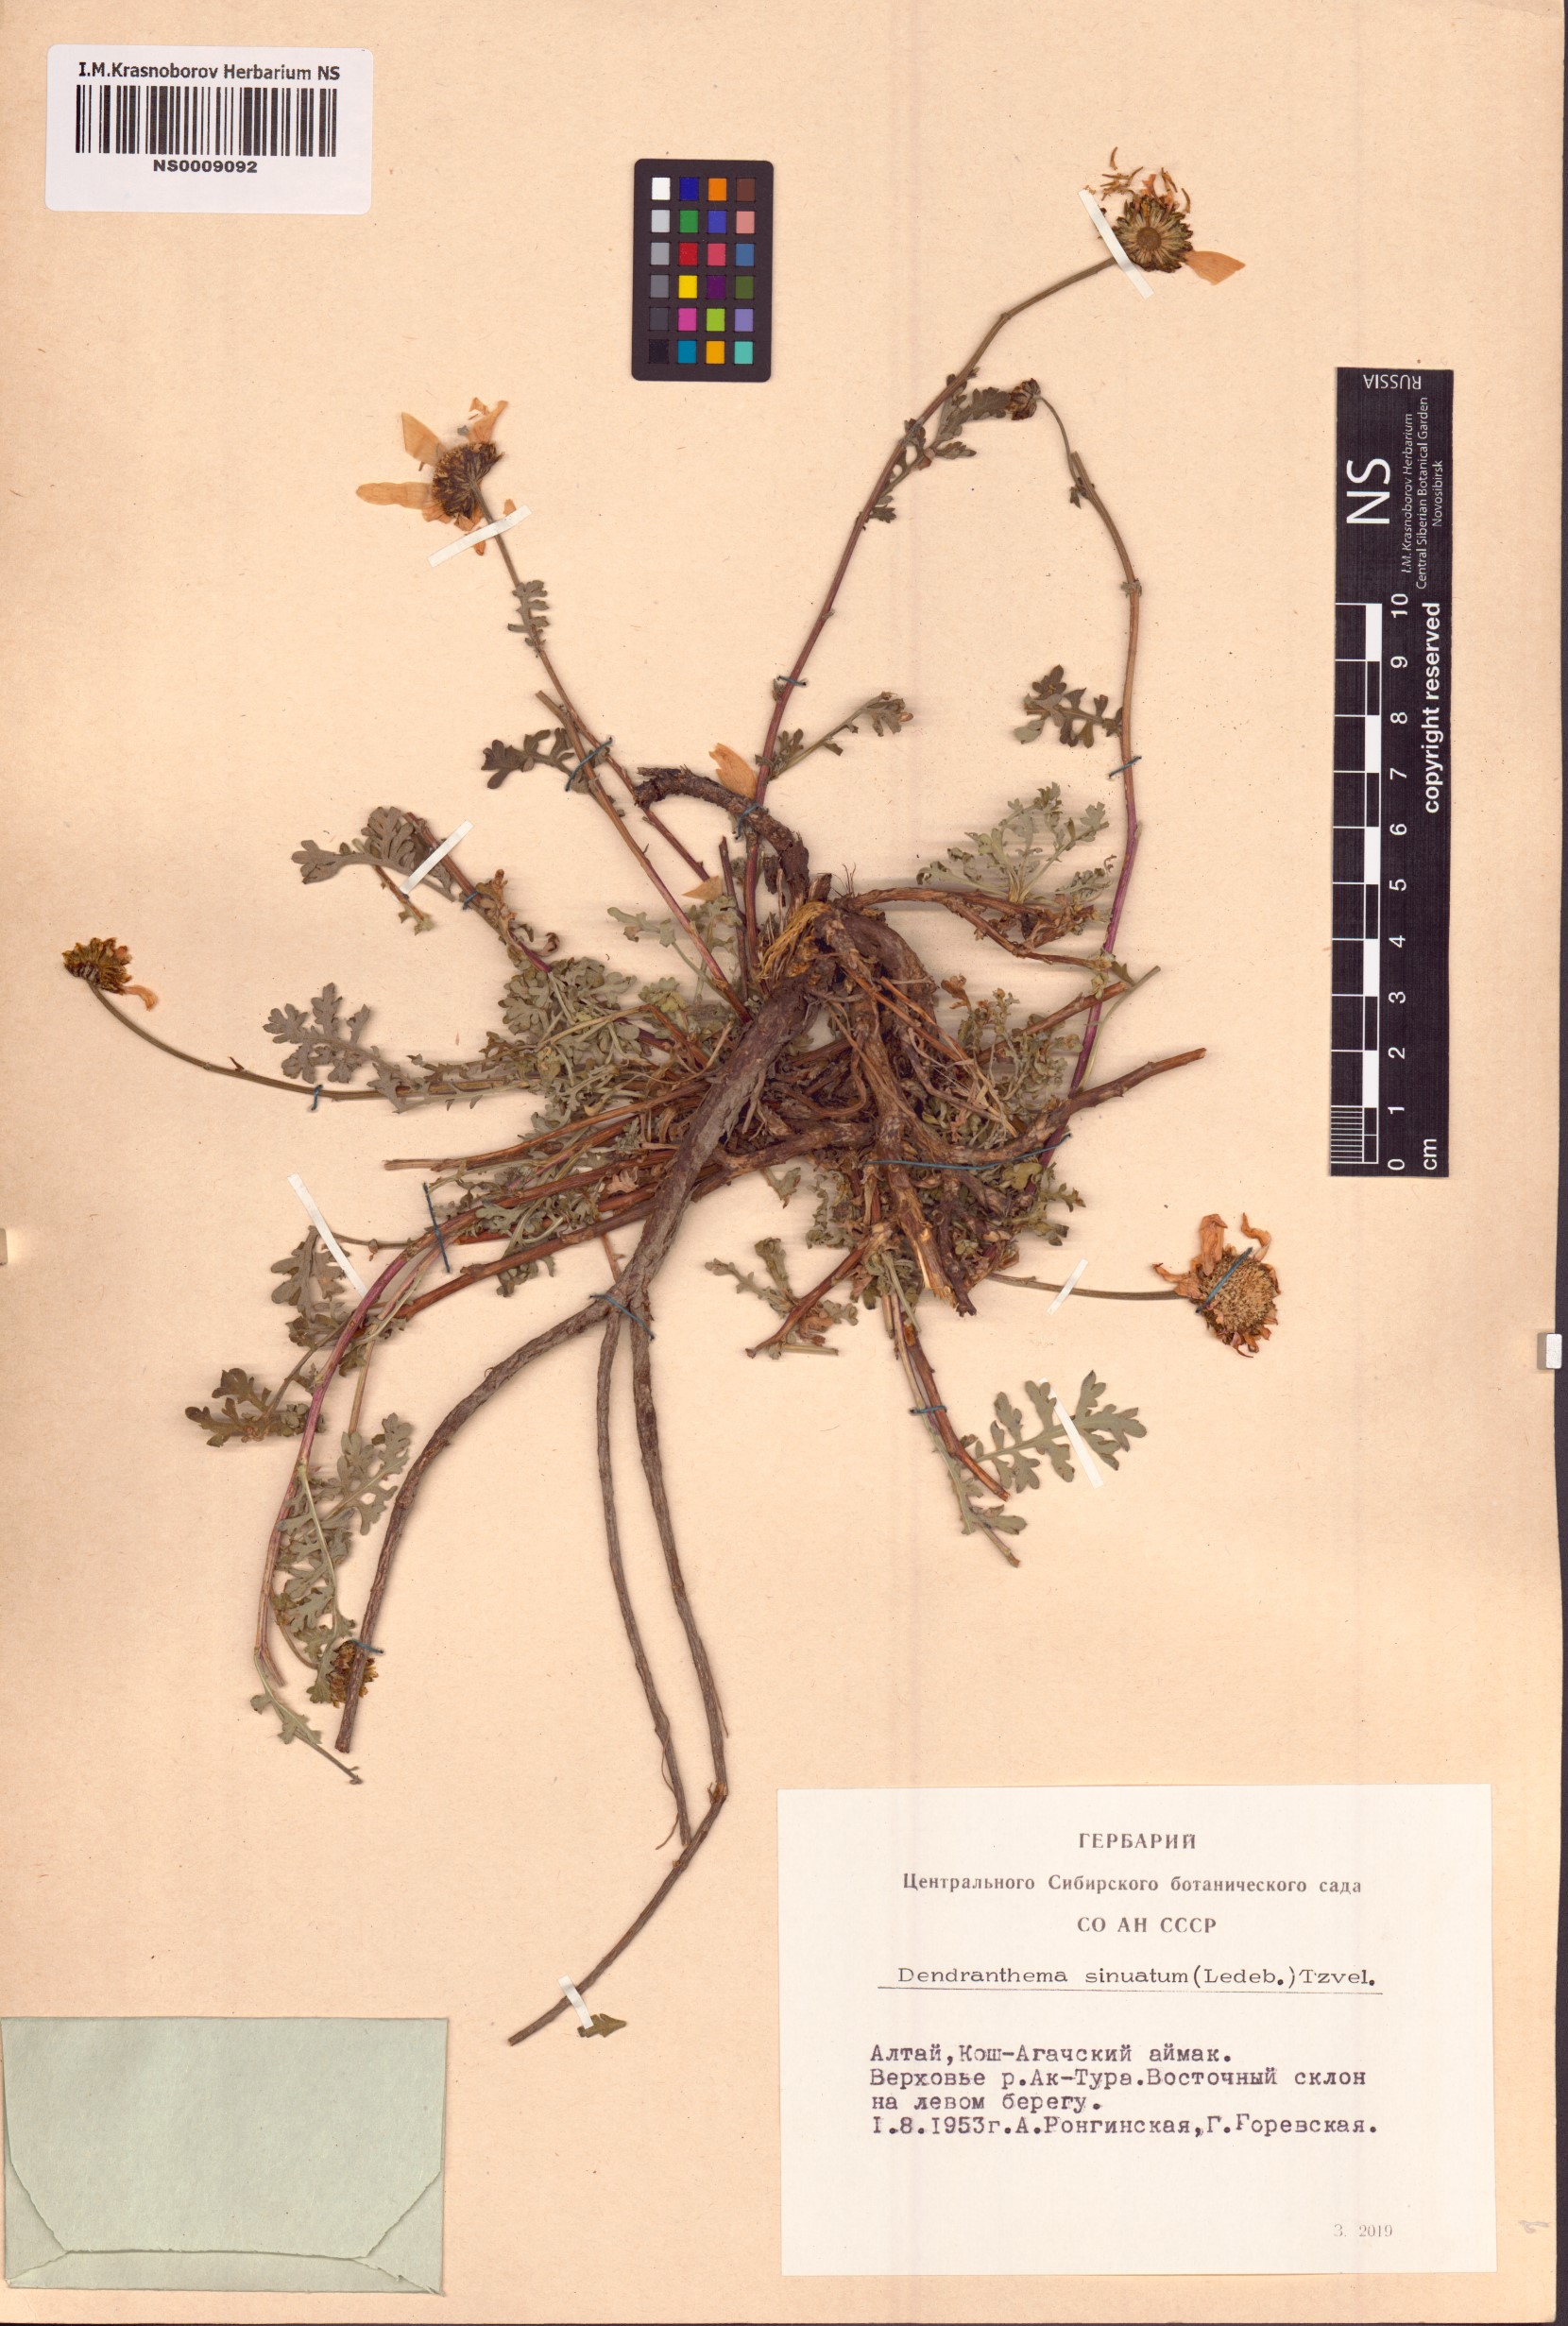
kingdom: Plantae
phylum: Tracheophyta
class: Magnoliopsida
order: Asterales
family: Asteraceae
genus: Chrysanthemum
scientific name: Chrysanthemum sinuatum
